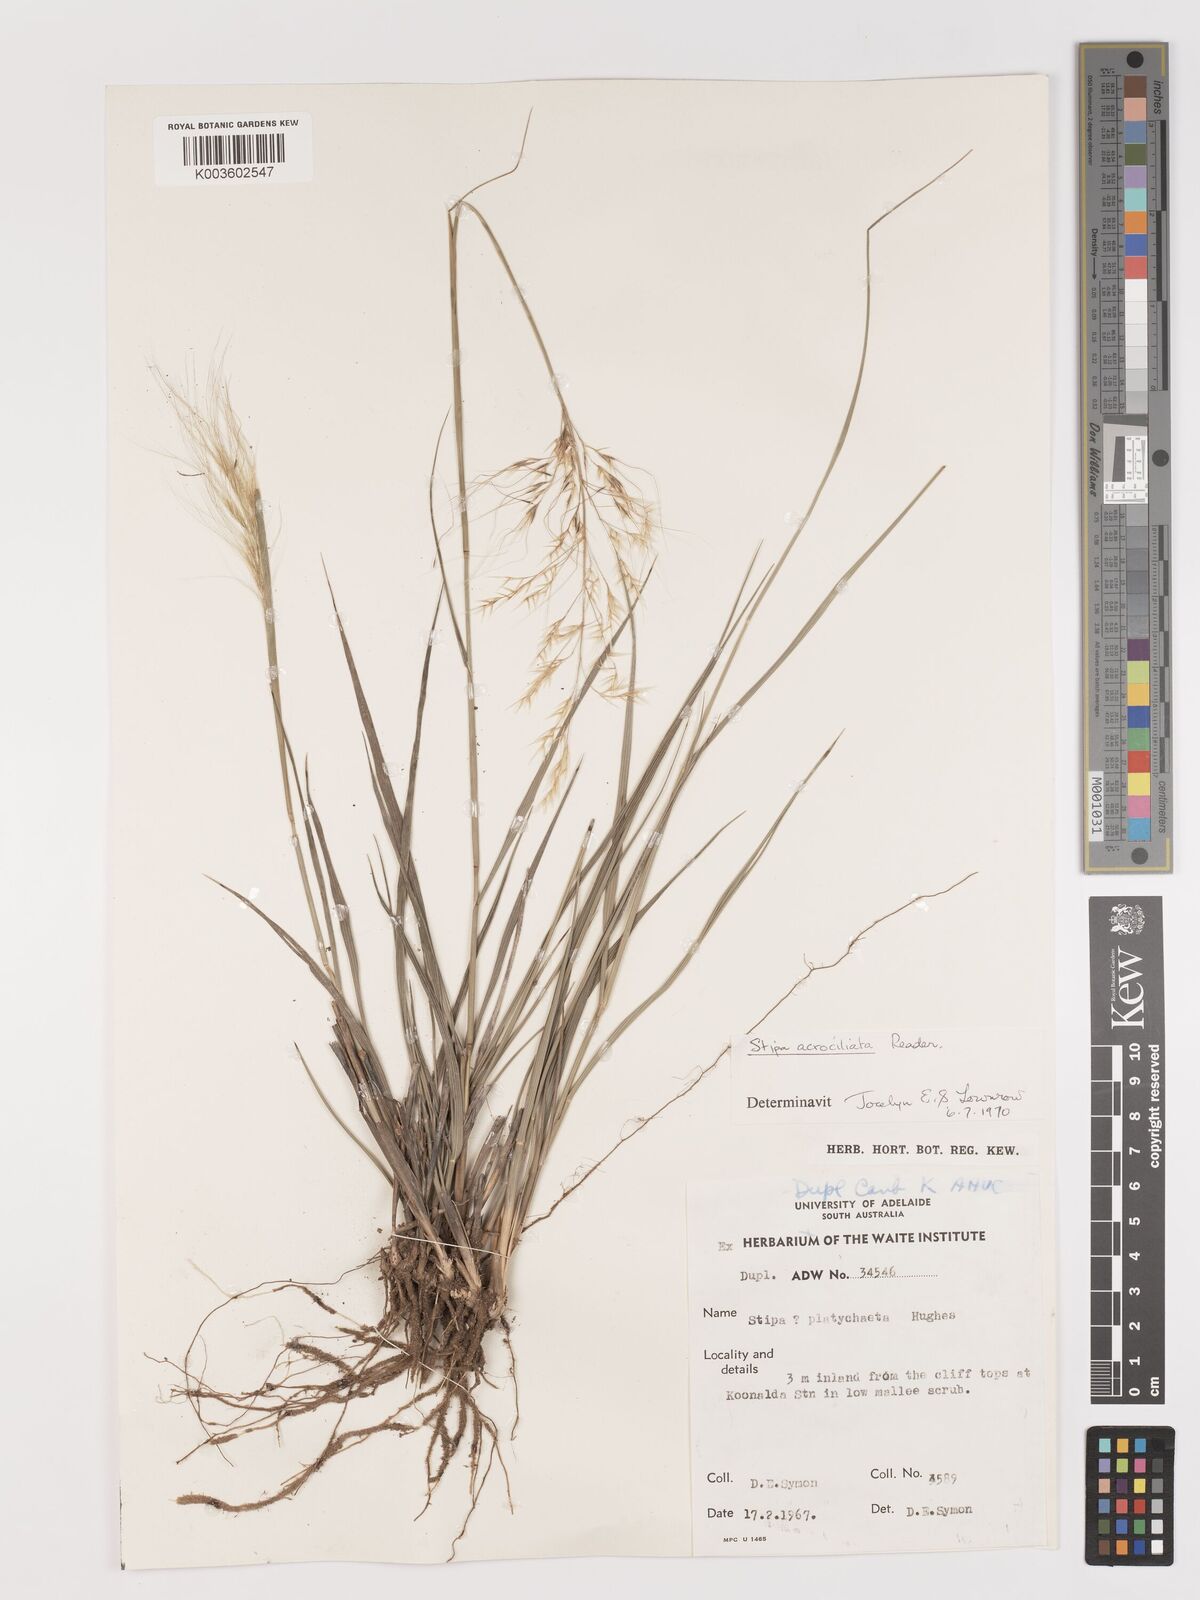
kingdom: Plantae
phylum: Tracheophyta
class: Liliopsida
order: Poales
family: Poaceae
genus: Austrostipa
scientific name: Austrostipa acrociliata
